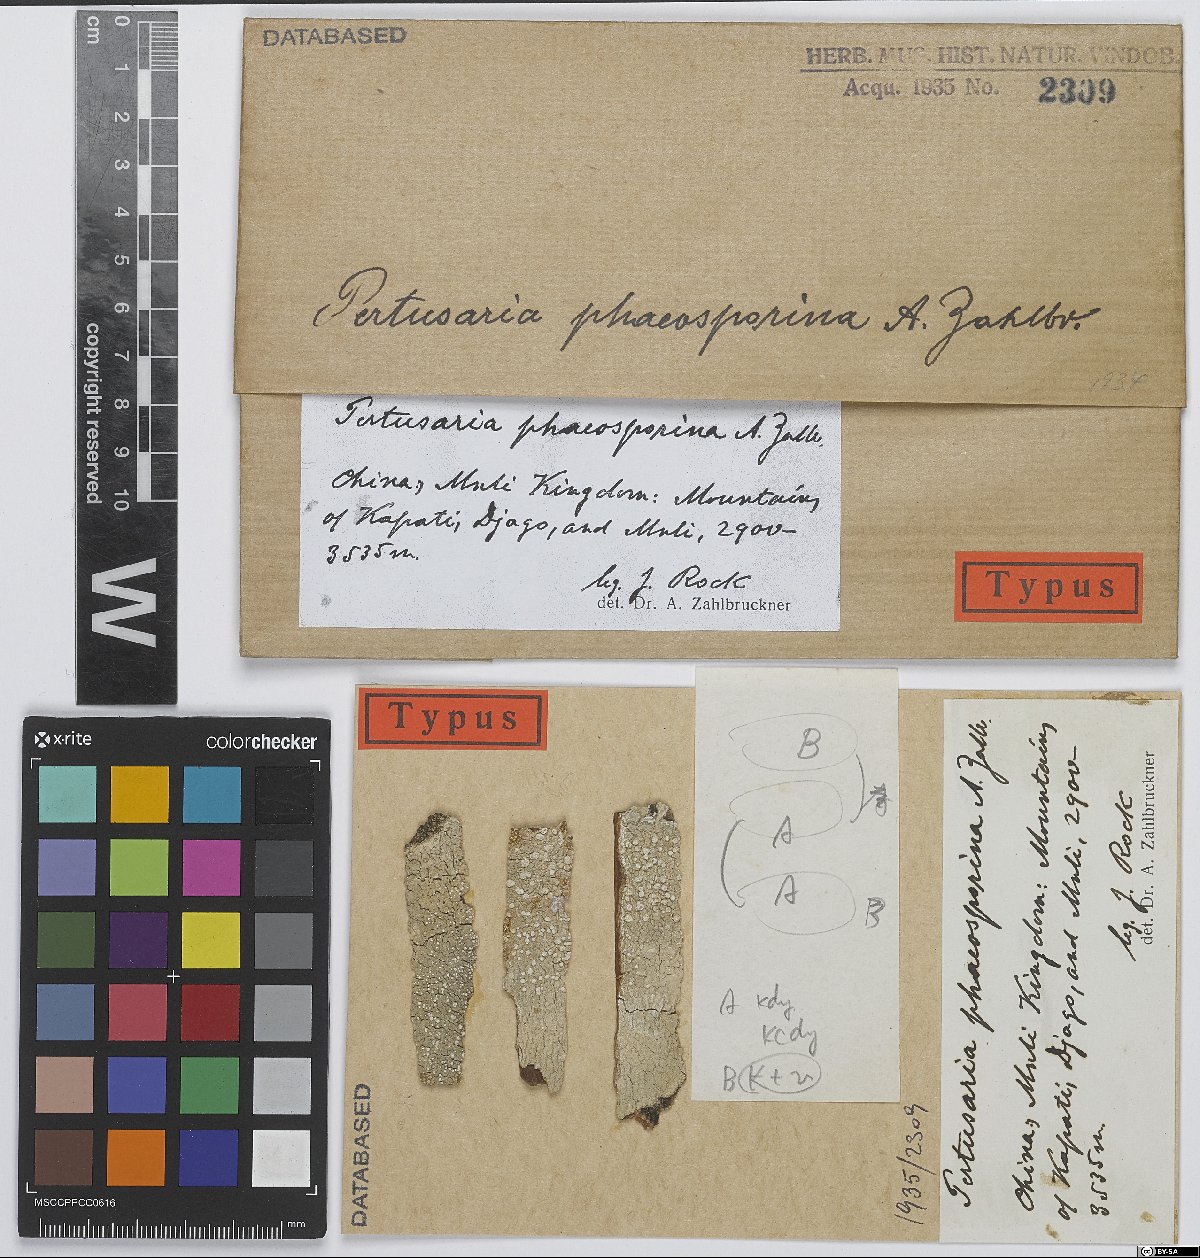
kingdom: Fungi
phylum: Ascomycota
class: Lecanoromycetes
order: Pertusariales
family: Pertusariaceae
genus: Pertusaria
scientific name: Pertusaria
